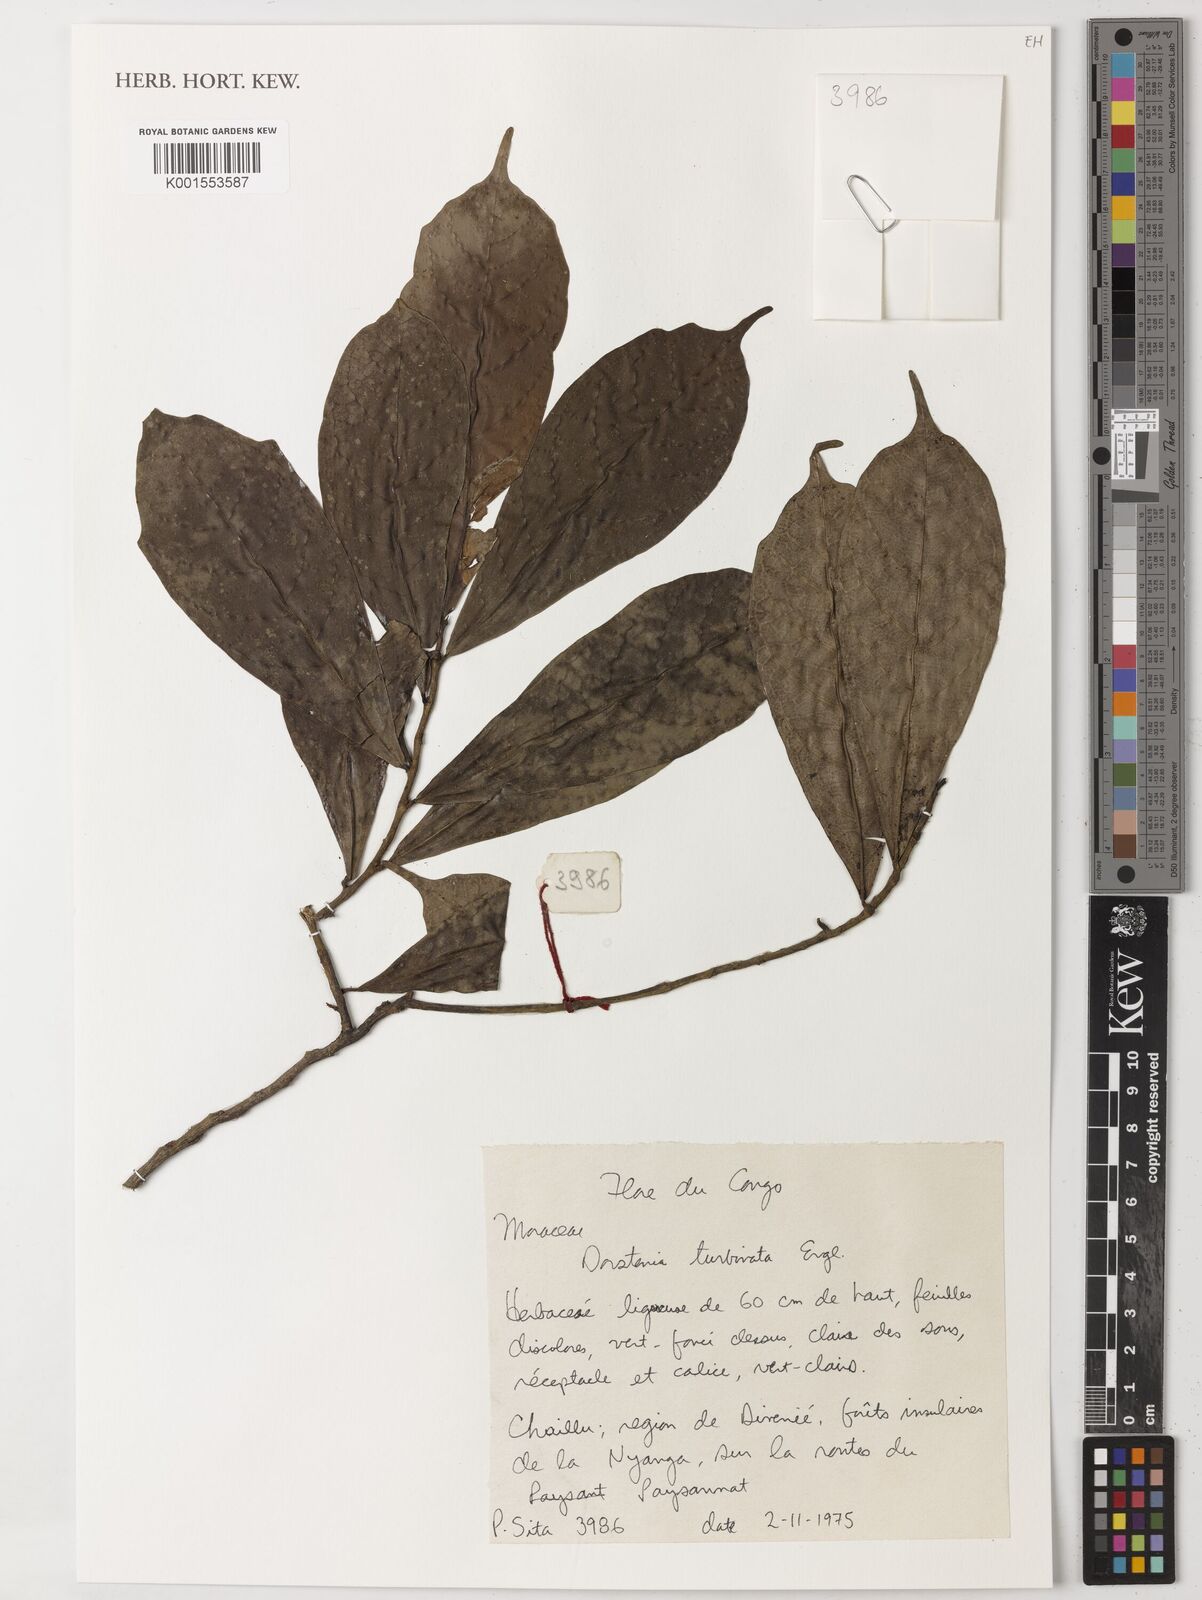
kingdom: Plantae
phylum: Tracheophyta
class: Magnoliopsida
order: Rosales
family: Moraceae
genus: Hijmania
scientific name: Hijmania turbinata
